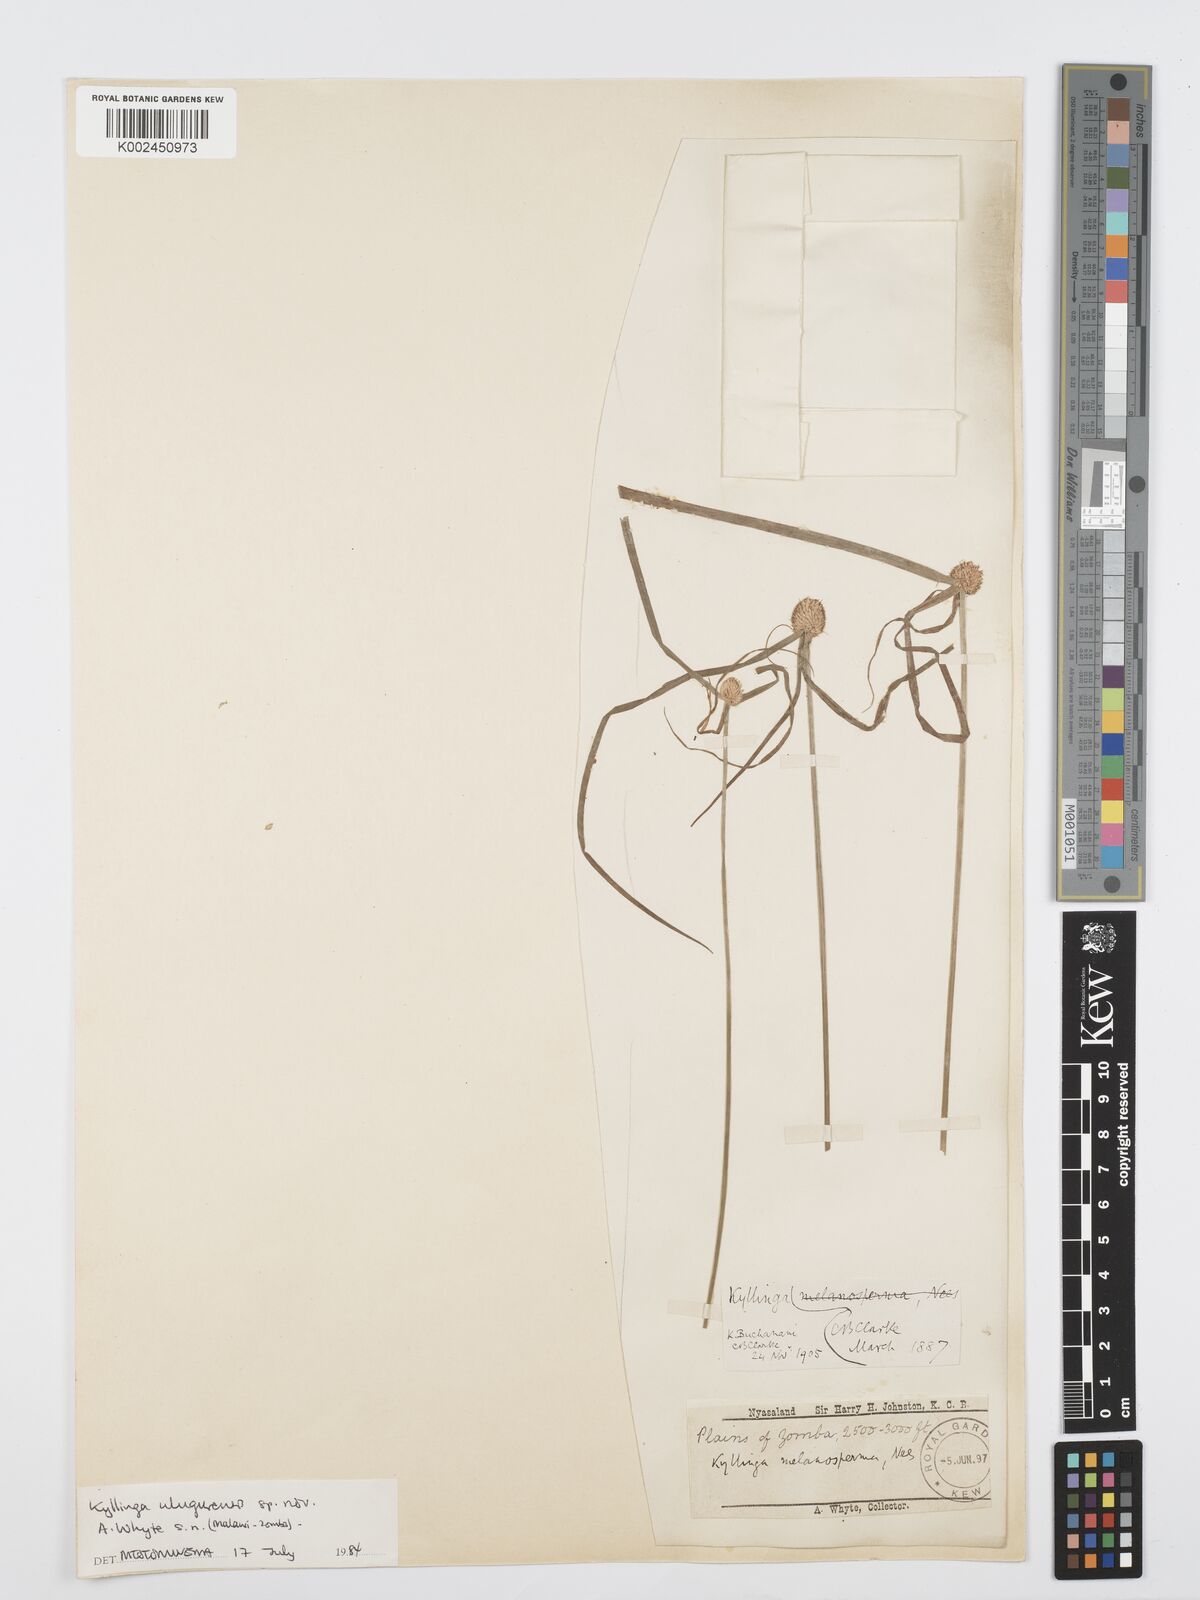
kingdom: Plantae
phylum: Tracheophyta
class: Liliopsida
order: Poales
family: Cyperaceae
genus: Cyperus
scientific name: Cyperus
